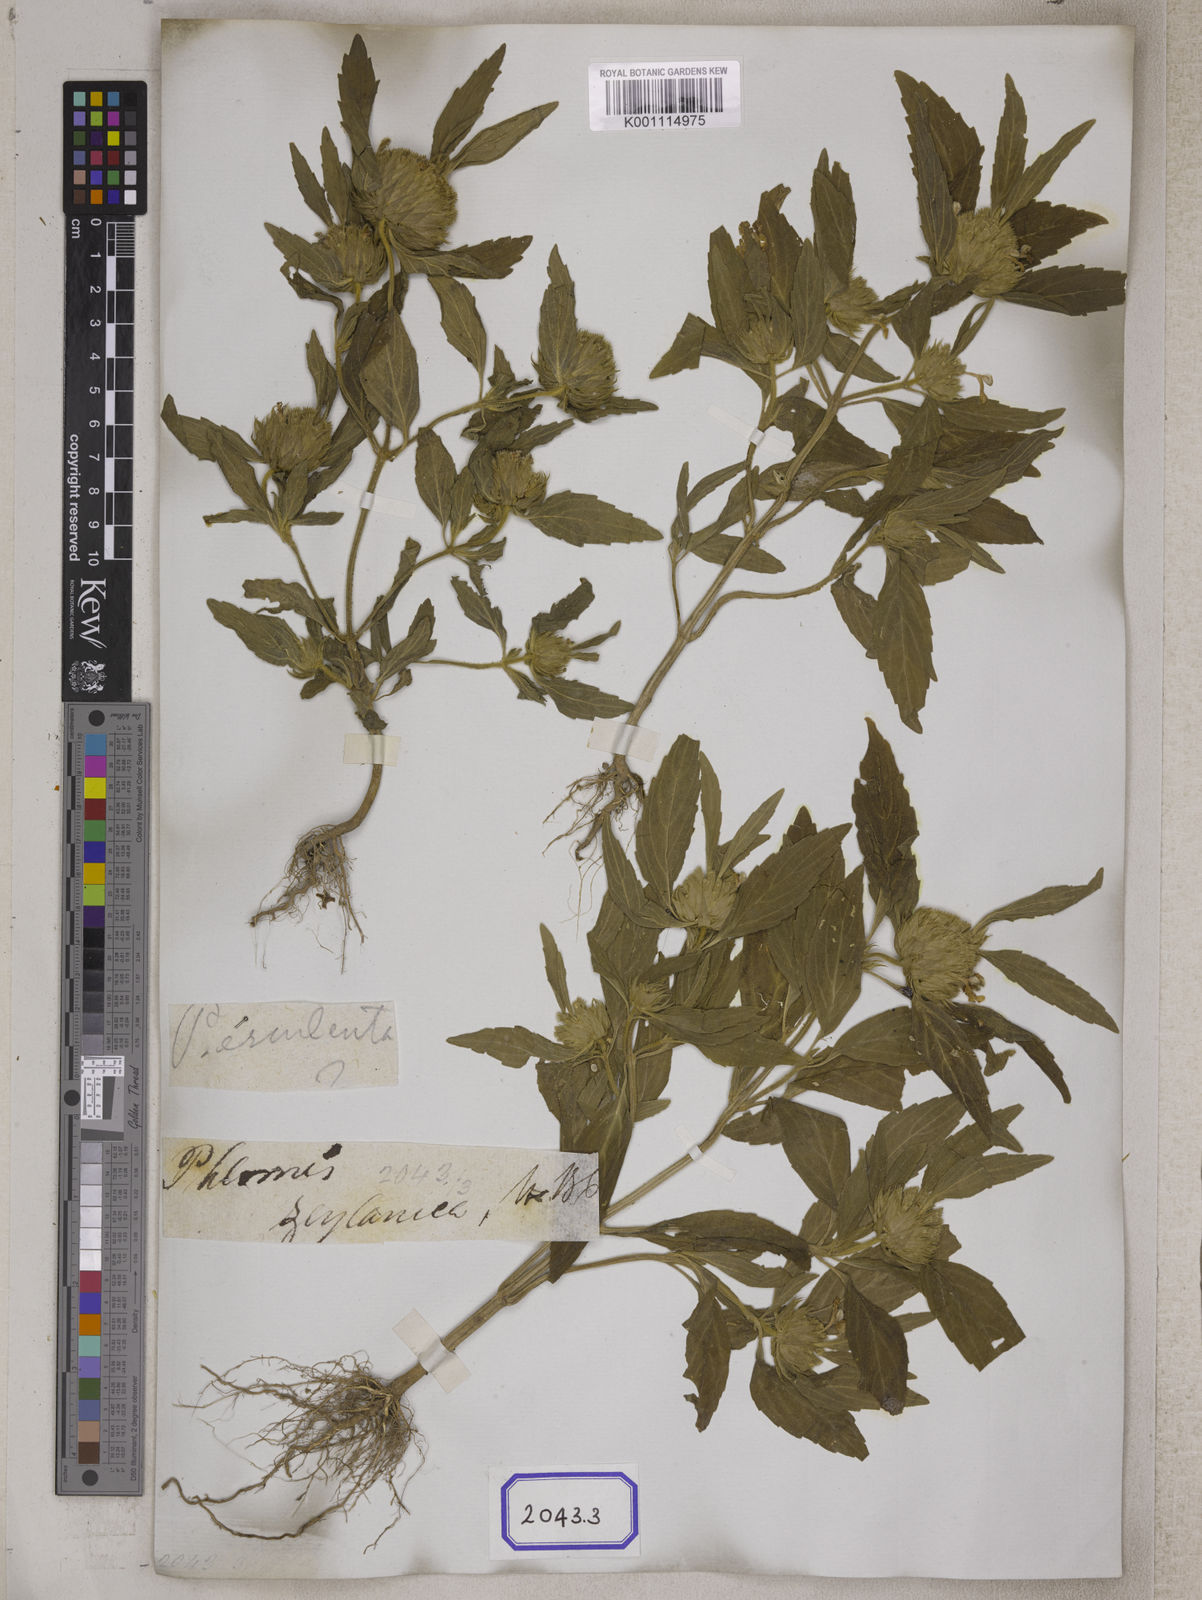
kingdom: Plantae
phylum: Tracheophyta
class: Magnoliopsida
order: Lamiales
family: Lamiaceae
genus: Leucas
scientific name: Leucas
